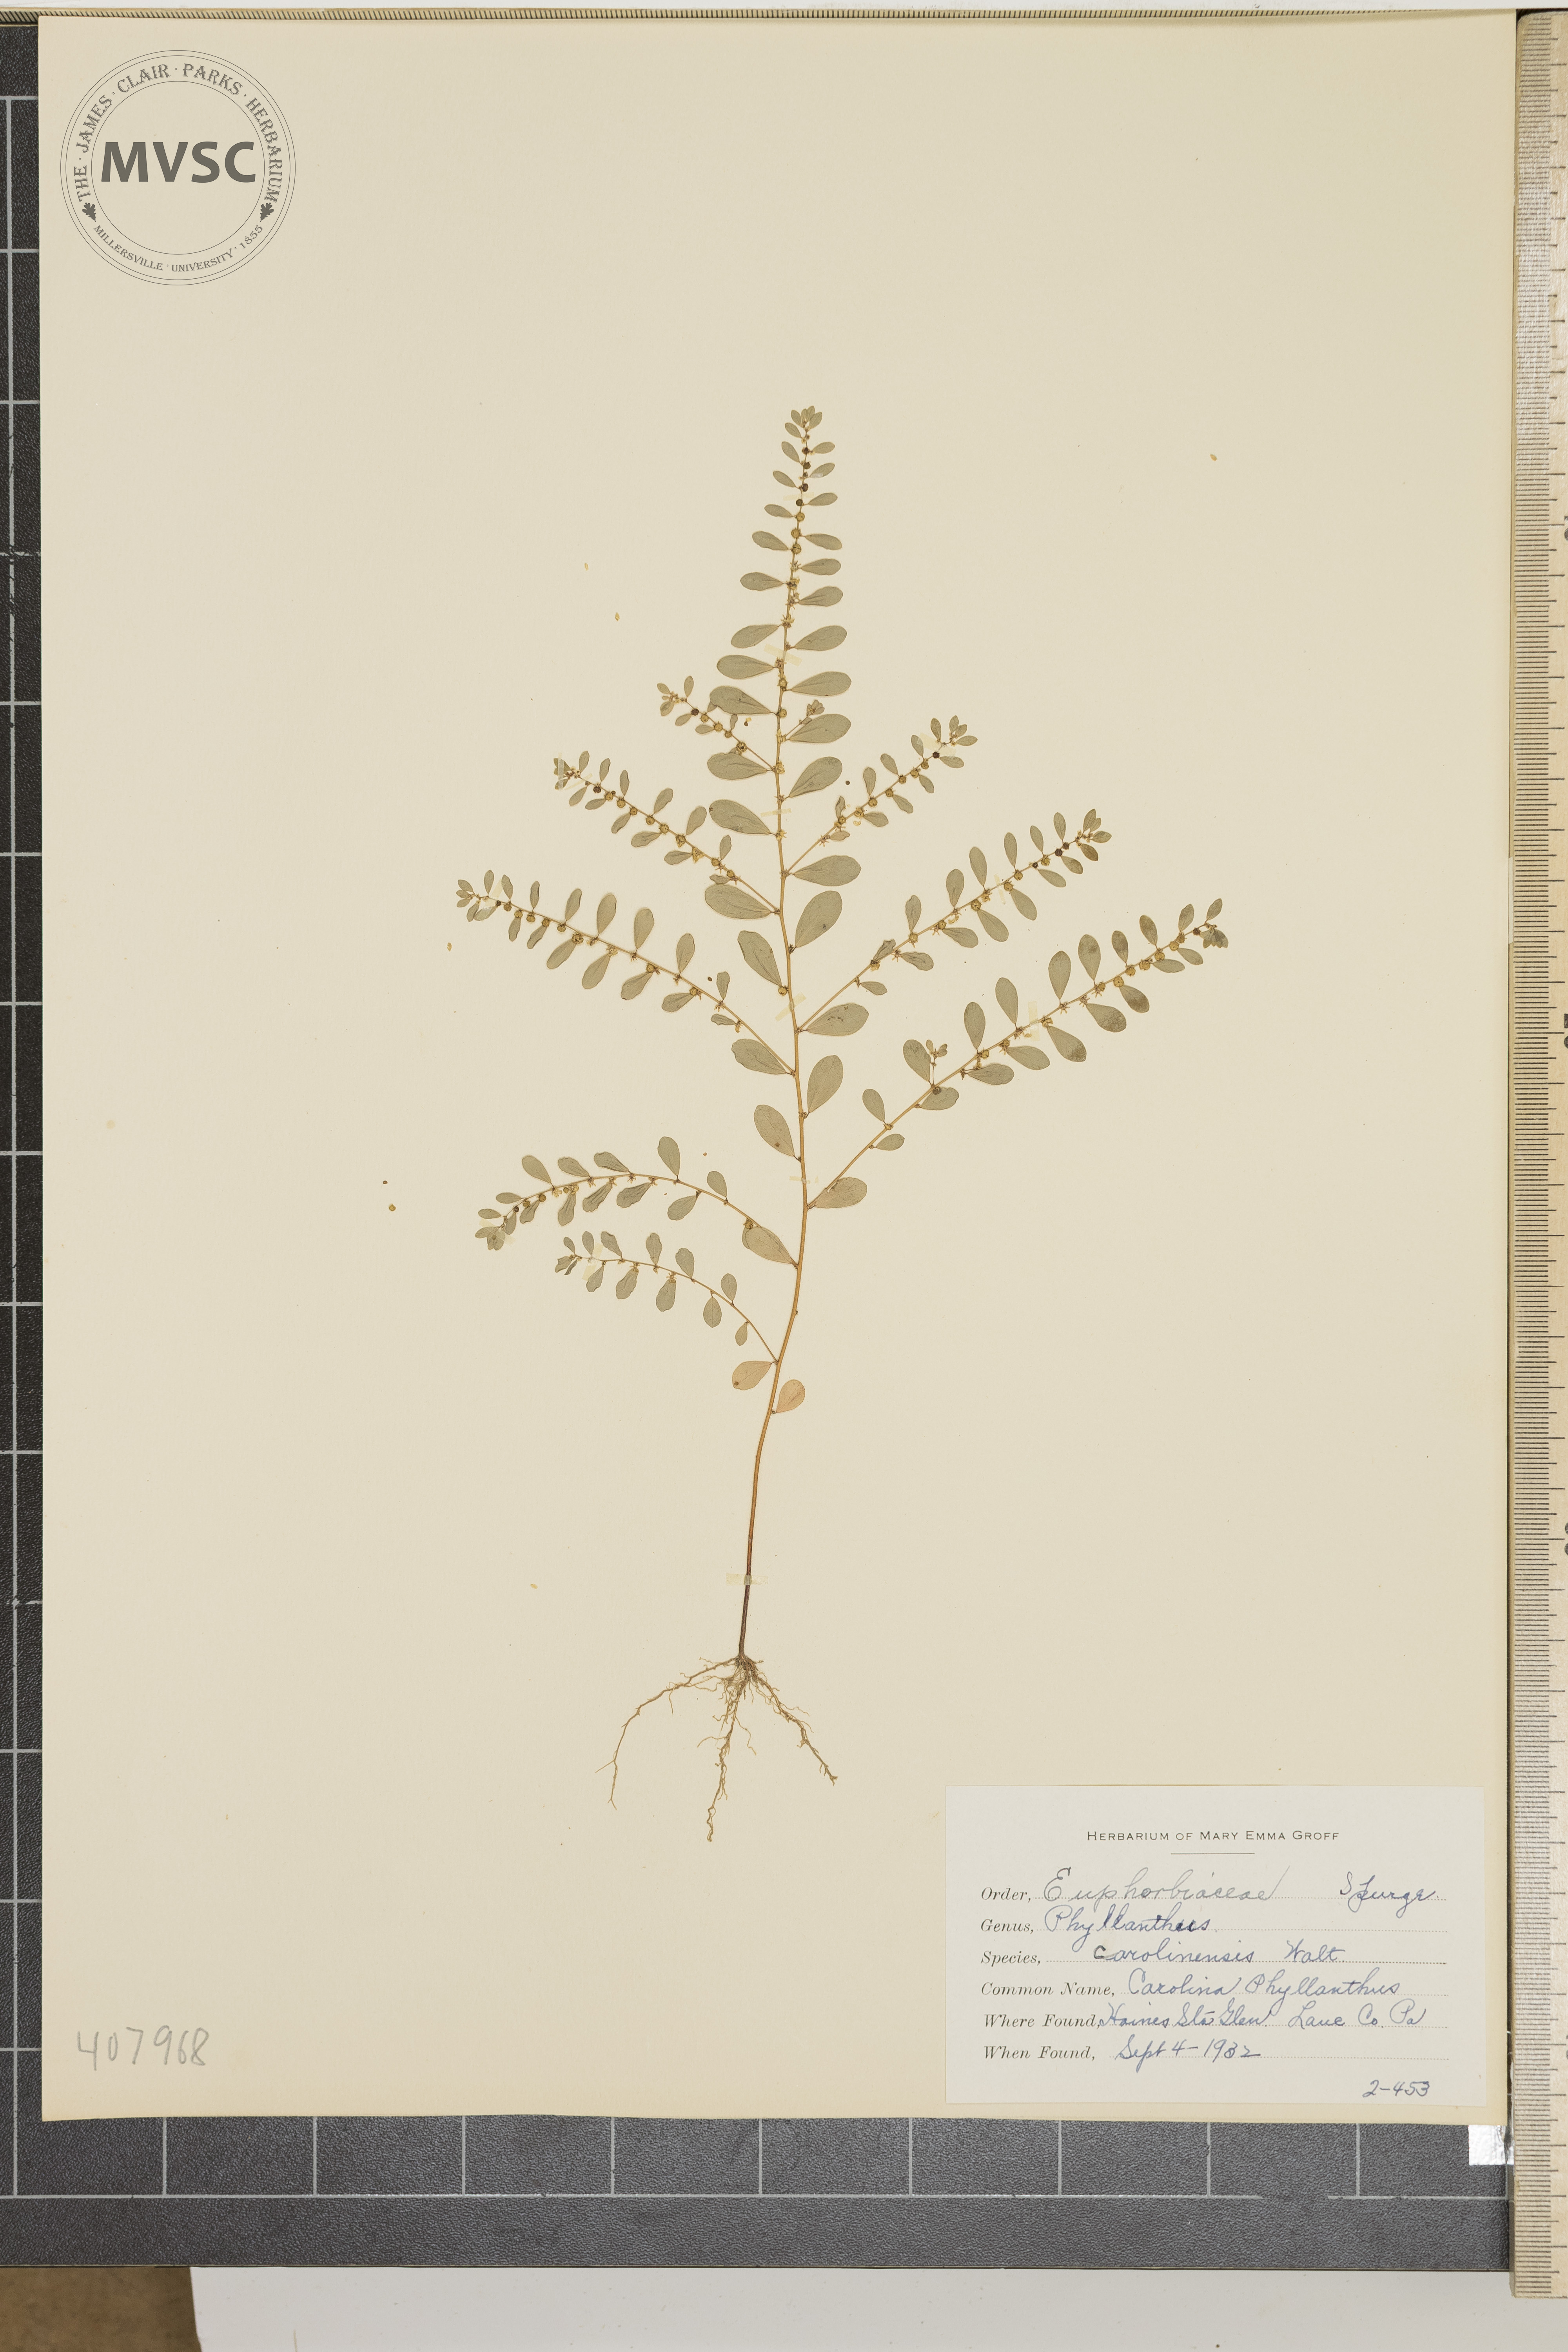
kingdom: Plantae
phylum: Tracheophyta
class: Magnoliopsida
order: Malpighiales
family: Phyllanthaceae
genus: Phyllanthus
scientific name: Phyllanthus caroliniensis
